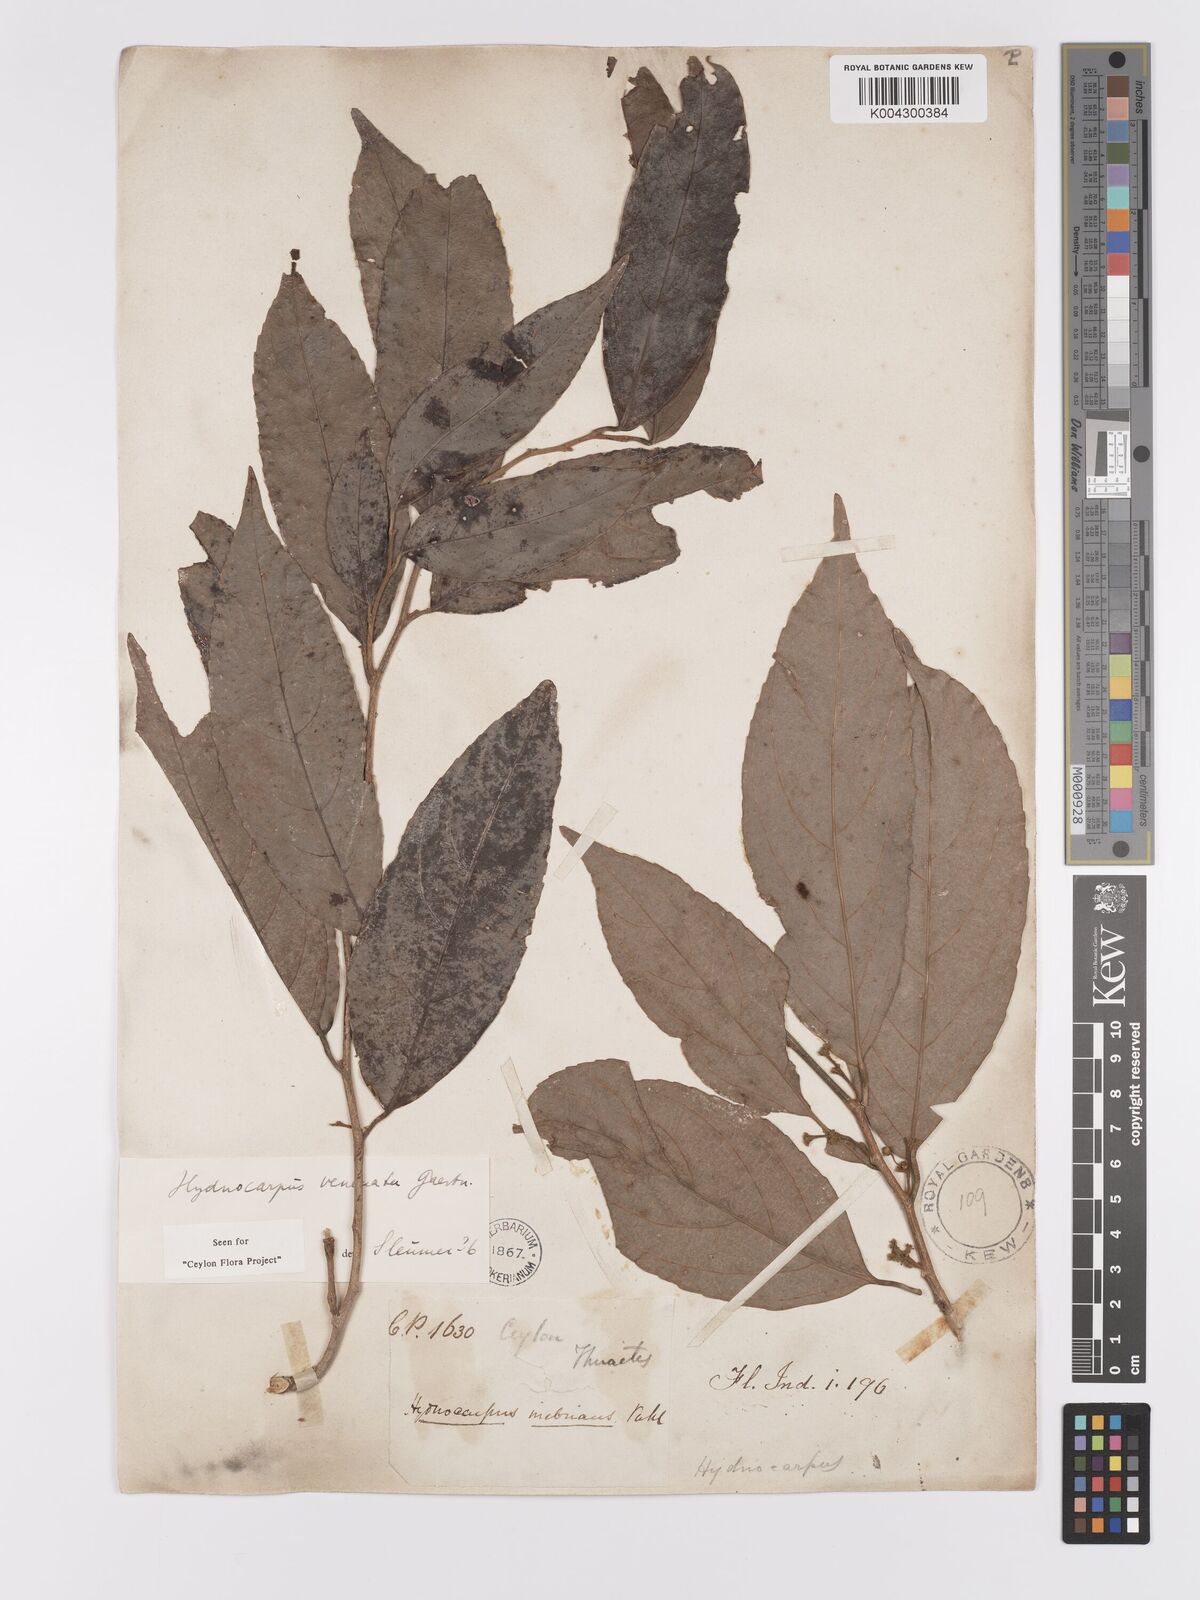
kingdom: Plantae
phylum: Tracheophyta
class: Magnoliopsida
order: Malpighiales
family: Achariaceae
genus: Hydnocarpus
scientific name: Hydnocarpus venenatus
